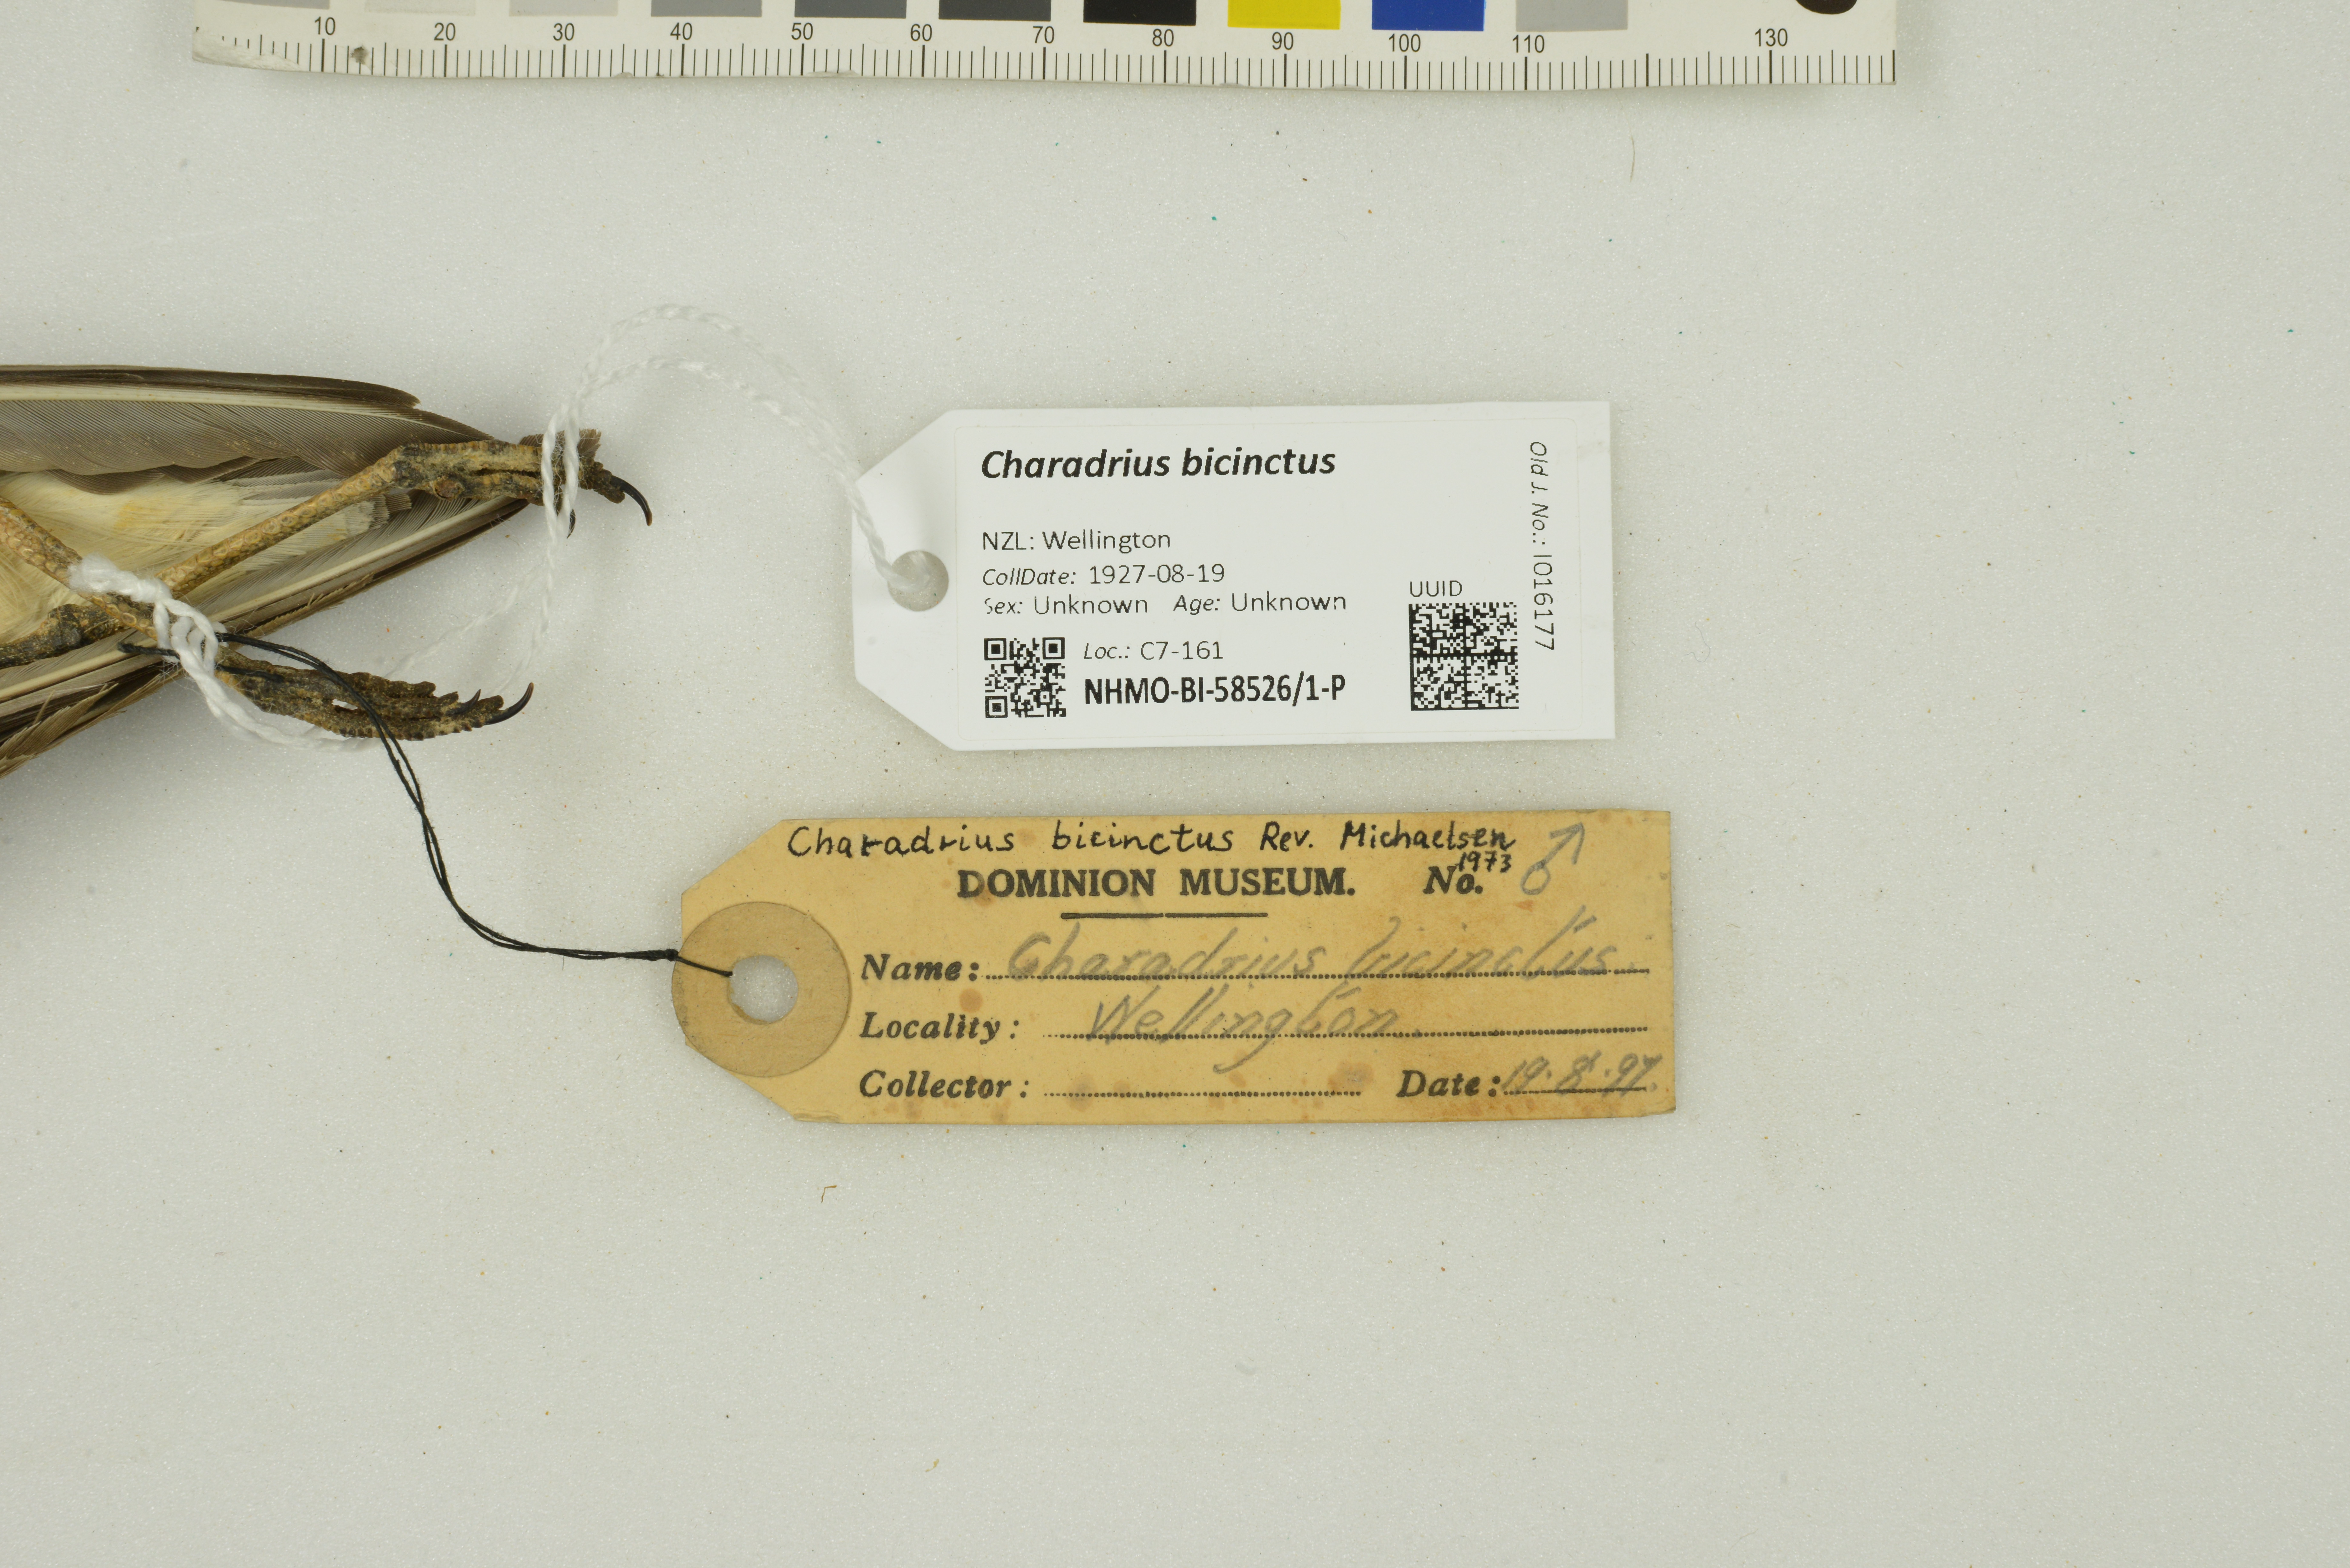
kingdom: Animalia
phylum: Chordata
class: Aves
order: Charadriiformes
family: Charadriidae
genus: Charadrius
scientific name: Charadrius bicinctus
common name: Double-banded plover
